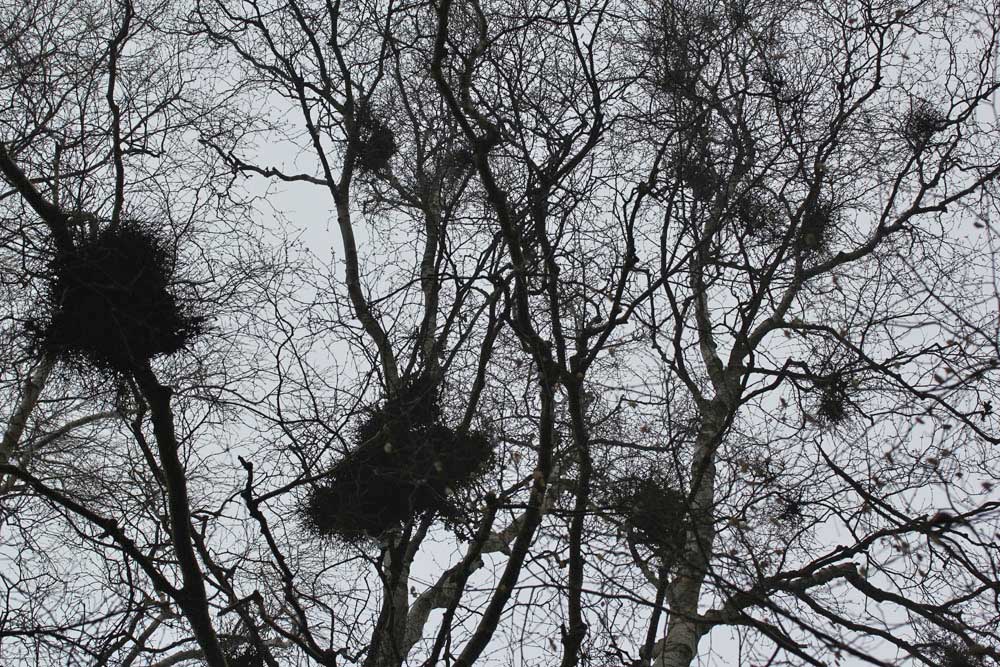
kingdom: Fungi
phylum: Ascomycota
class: Taphrinomycetes
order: Taphrinales
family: Taphrinaceae
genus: Taphrina
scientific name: Taphrina betulina
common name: hekse-sækdug
